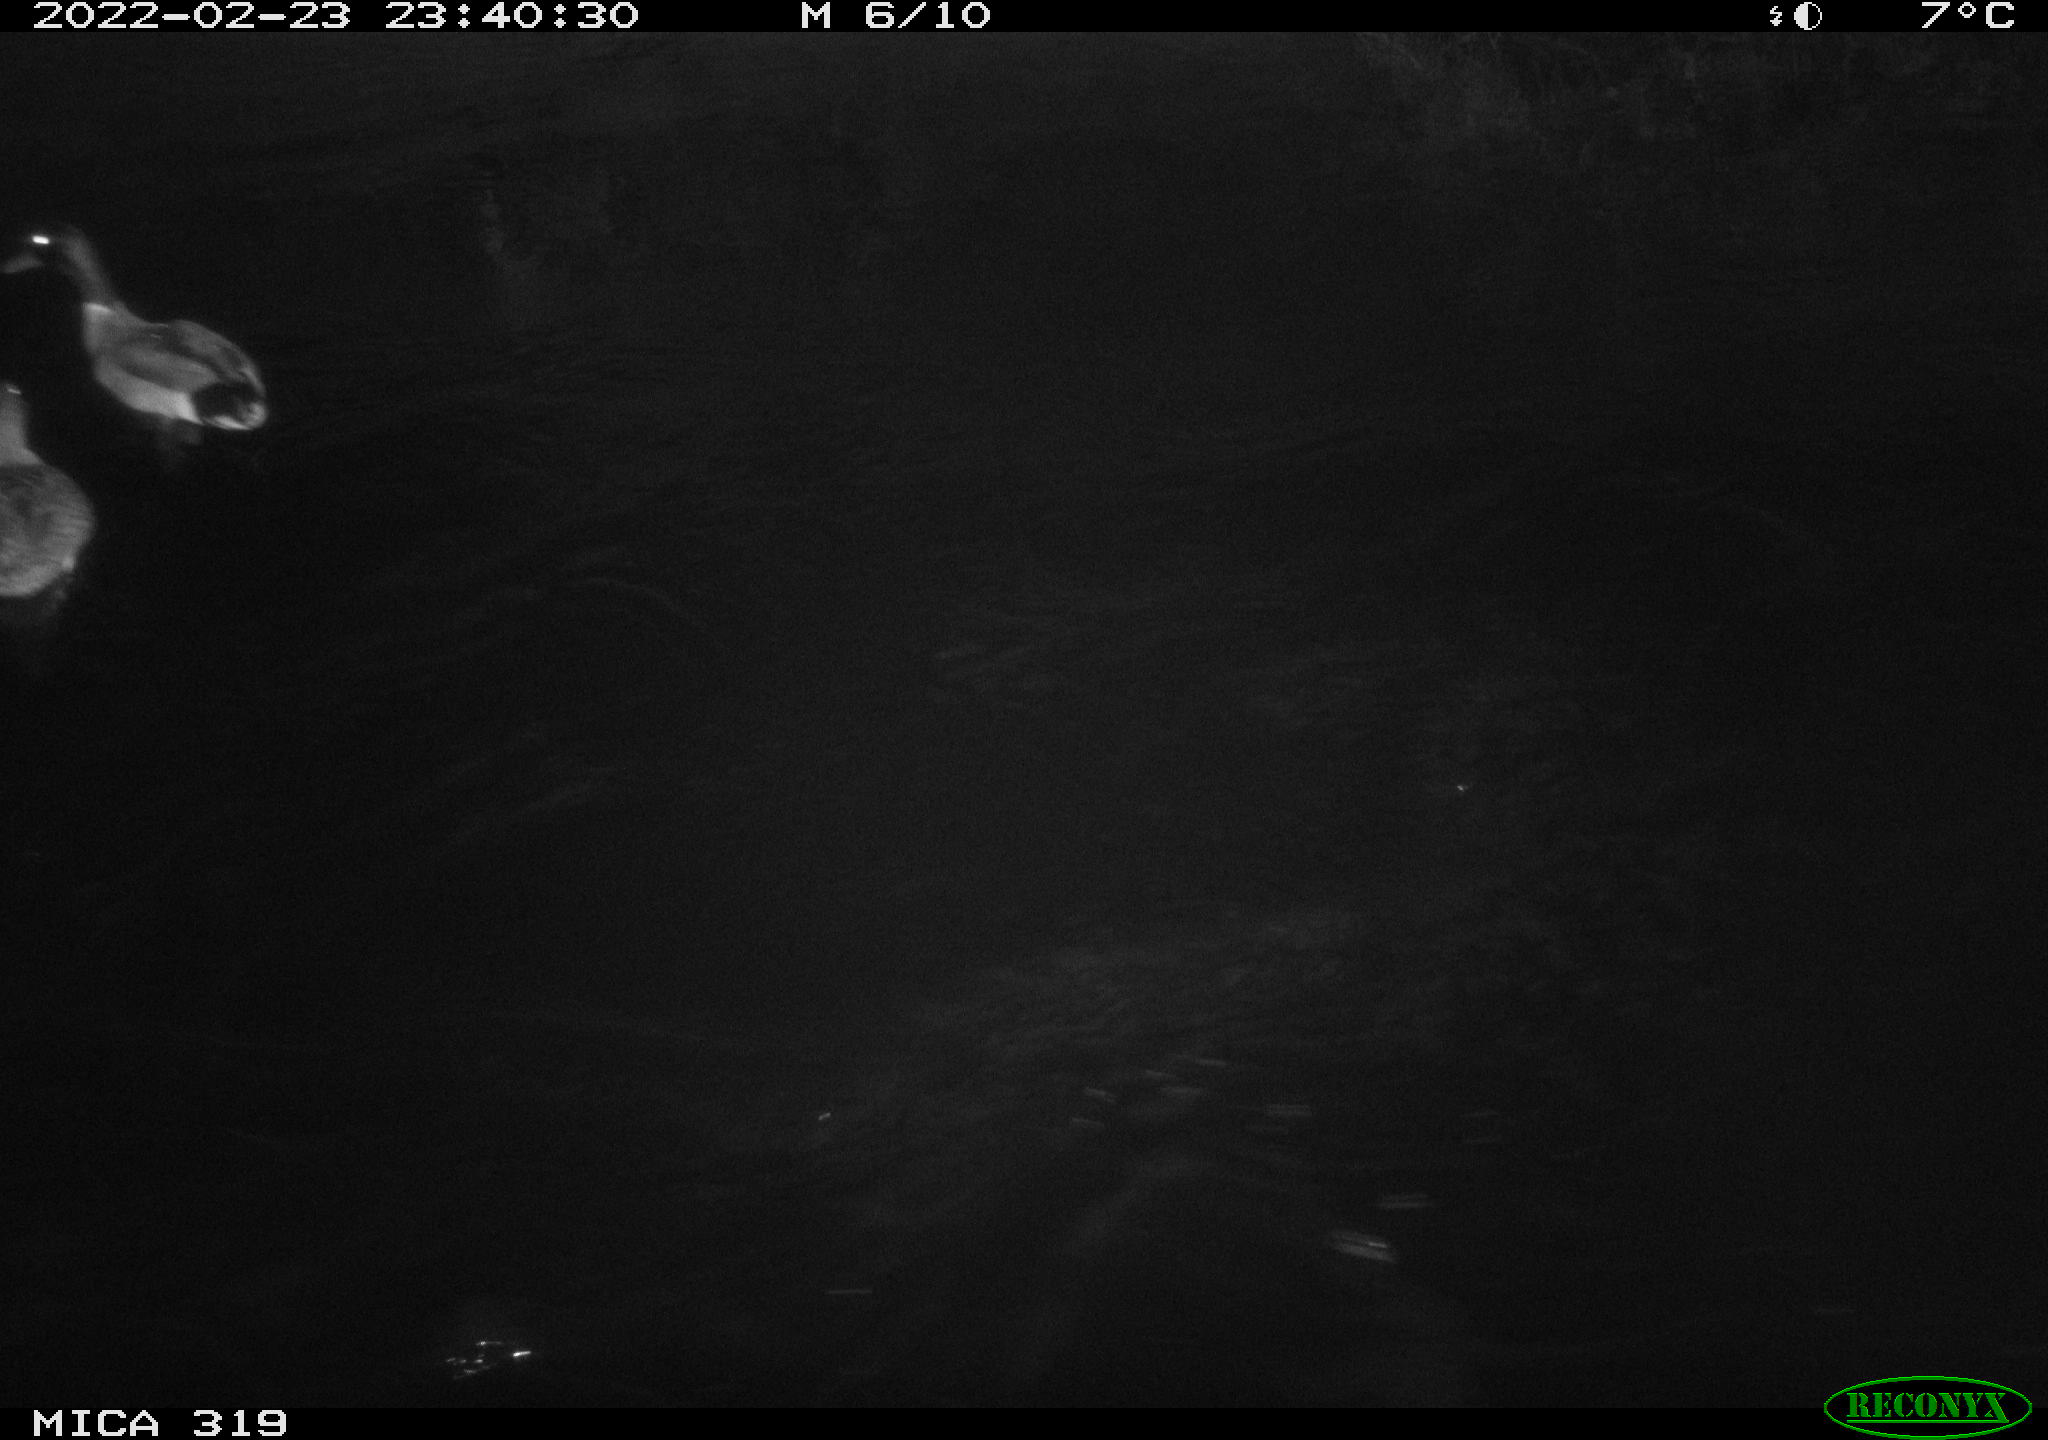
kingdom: Animalia
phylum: Chordata
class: Aves
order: Anseriformes
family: Anatidae
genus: Anas
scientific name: Anas platyrhynchos
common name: Mallard
